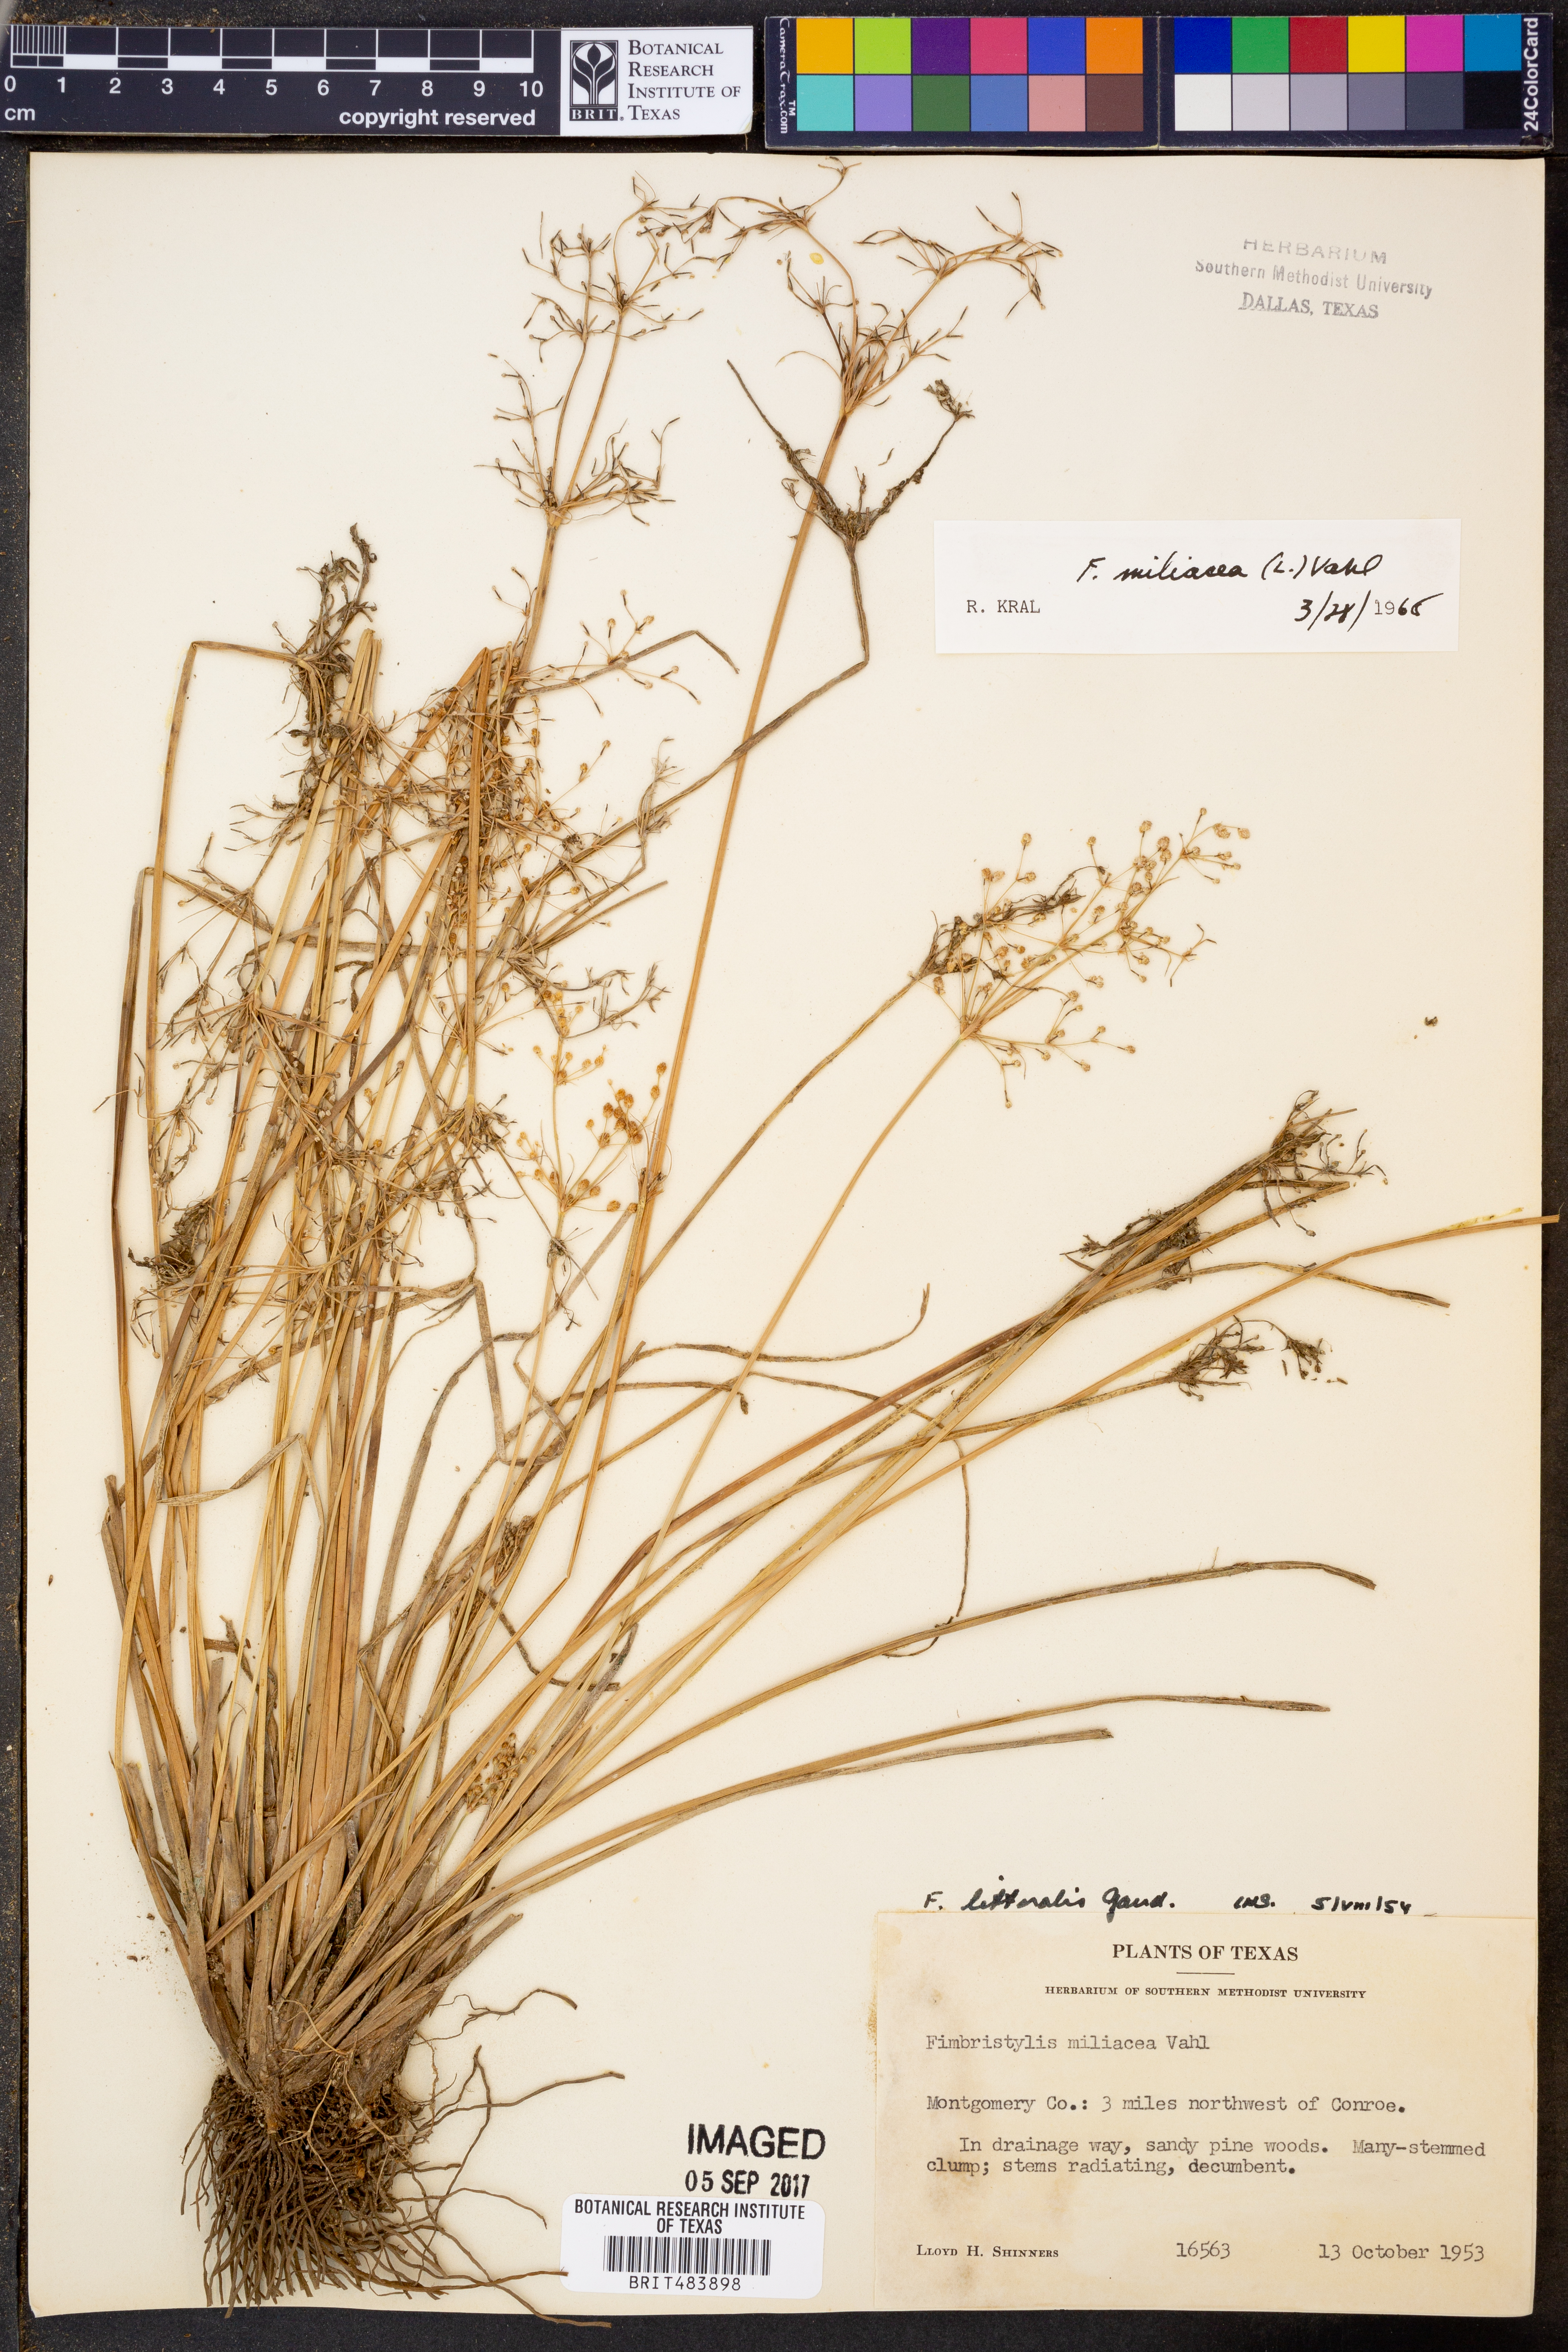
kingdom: Plantae
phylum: Tracheophyta
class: Liliopsida
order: Poales
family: Cyperaceae
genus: Fimbristylis
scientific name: Fimbristylis quinquangularis
